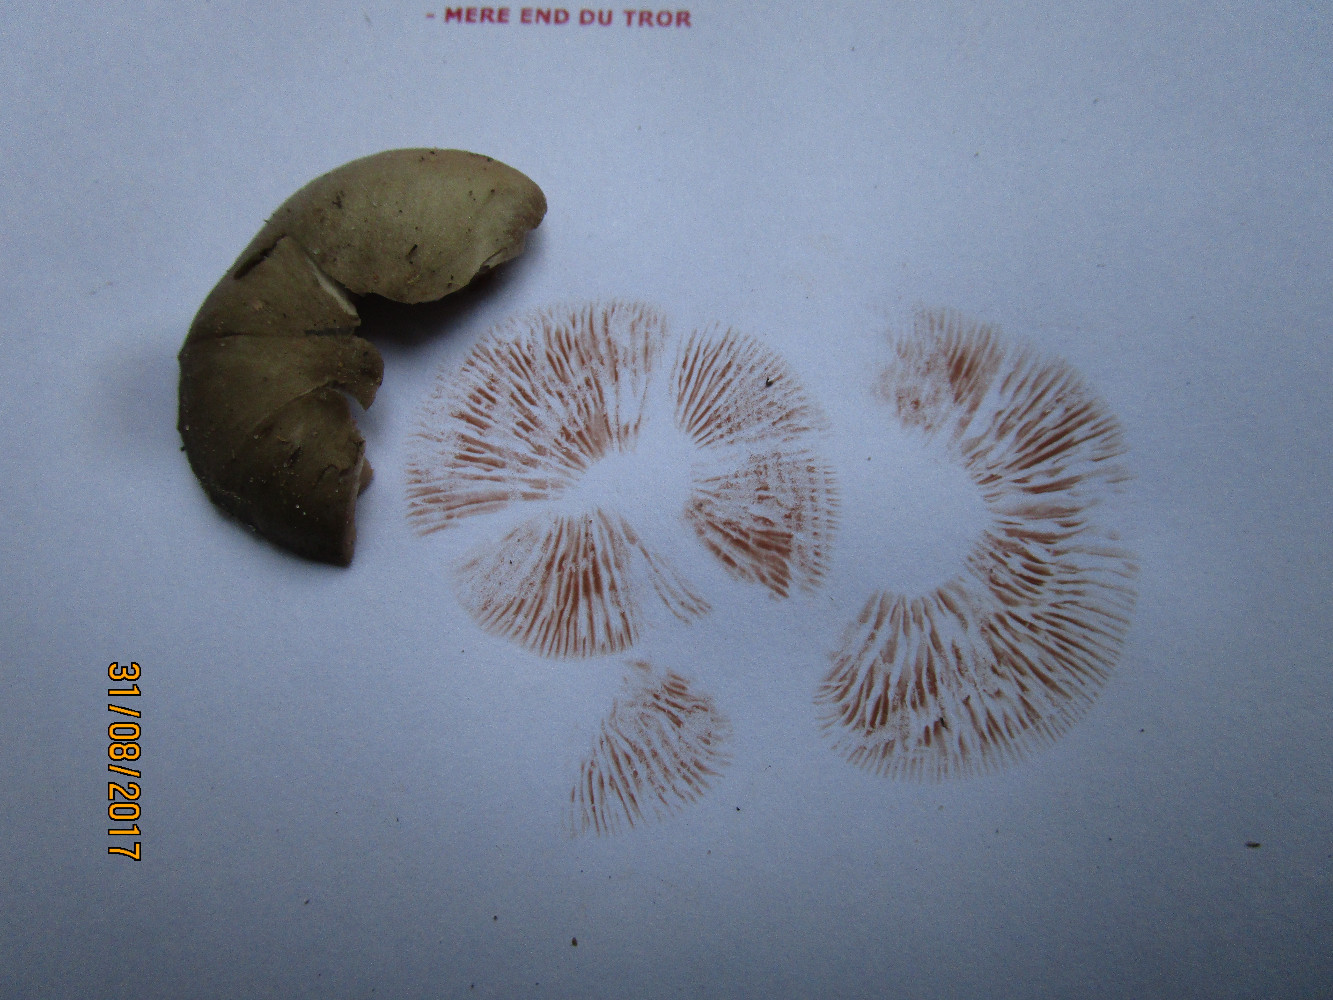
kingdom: Fungi
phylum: Basidiomycota
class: Agaricomycetes
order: Agaricales
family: Entolomataceae
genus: Entoloma
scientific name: Entoloma sordidulum
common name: smudsig rødblad
